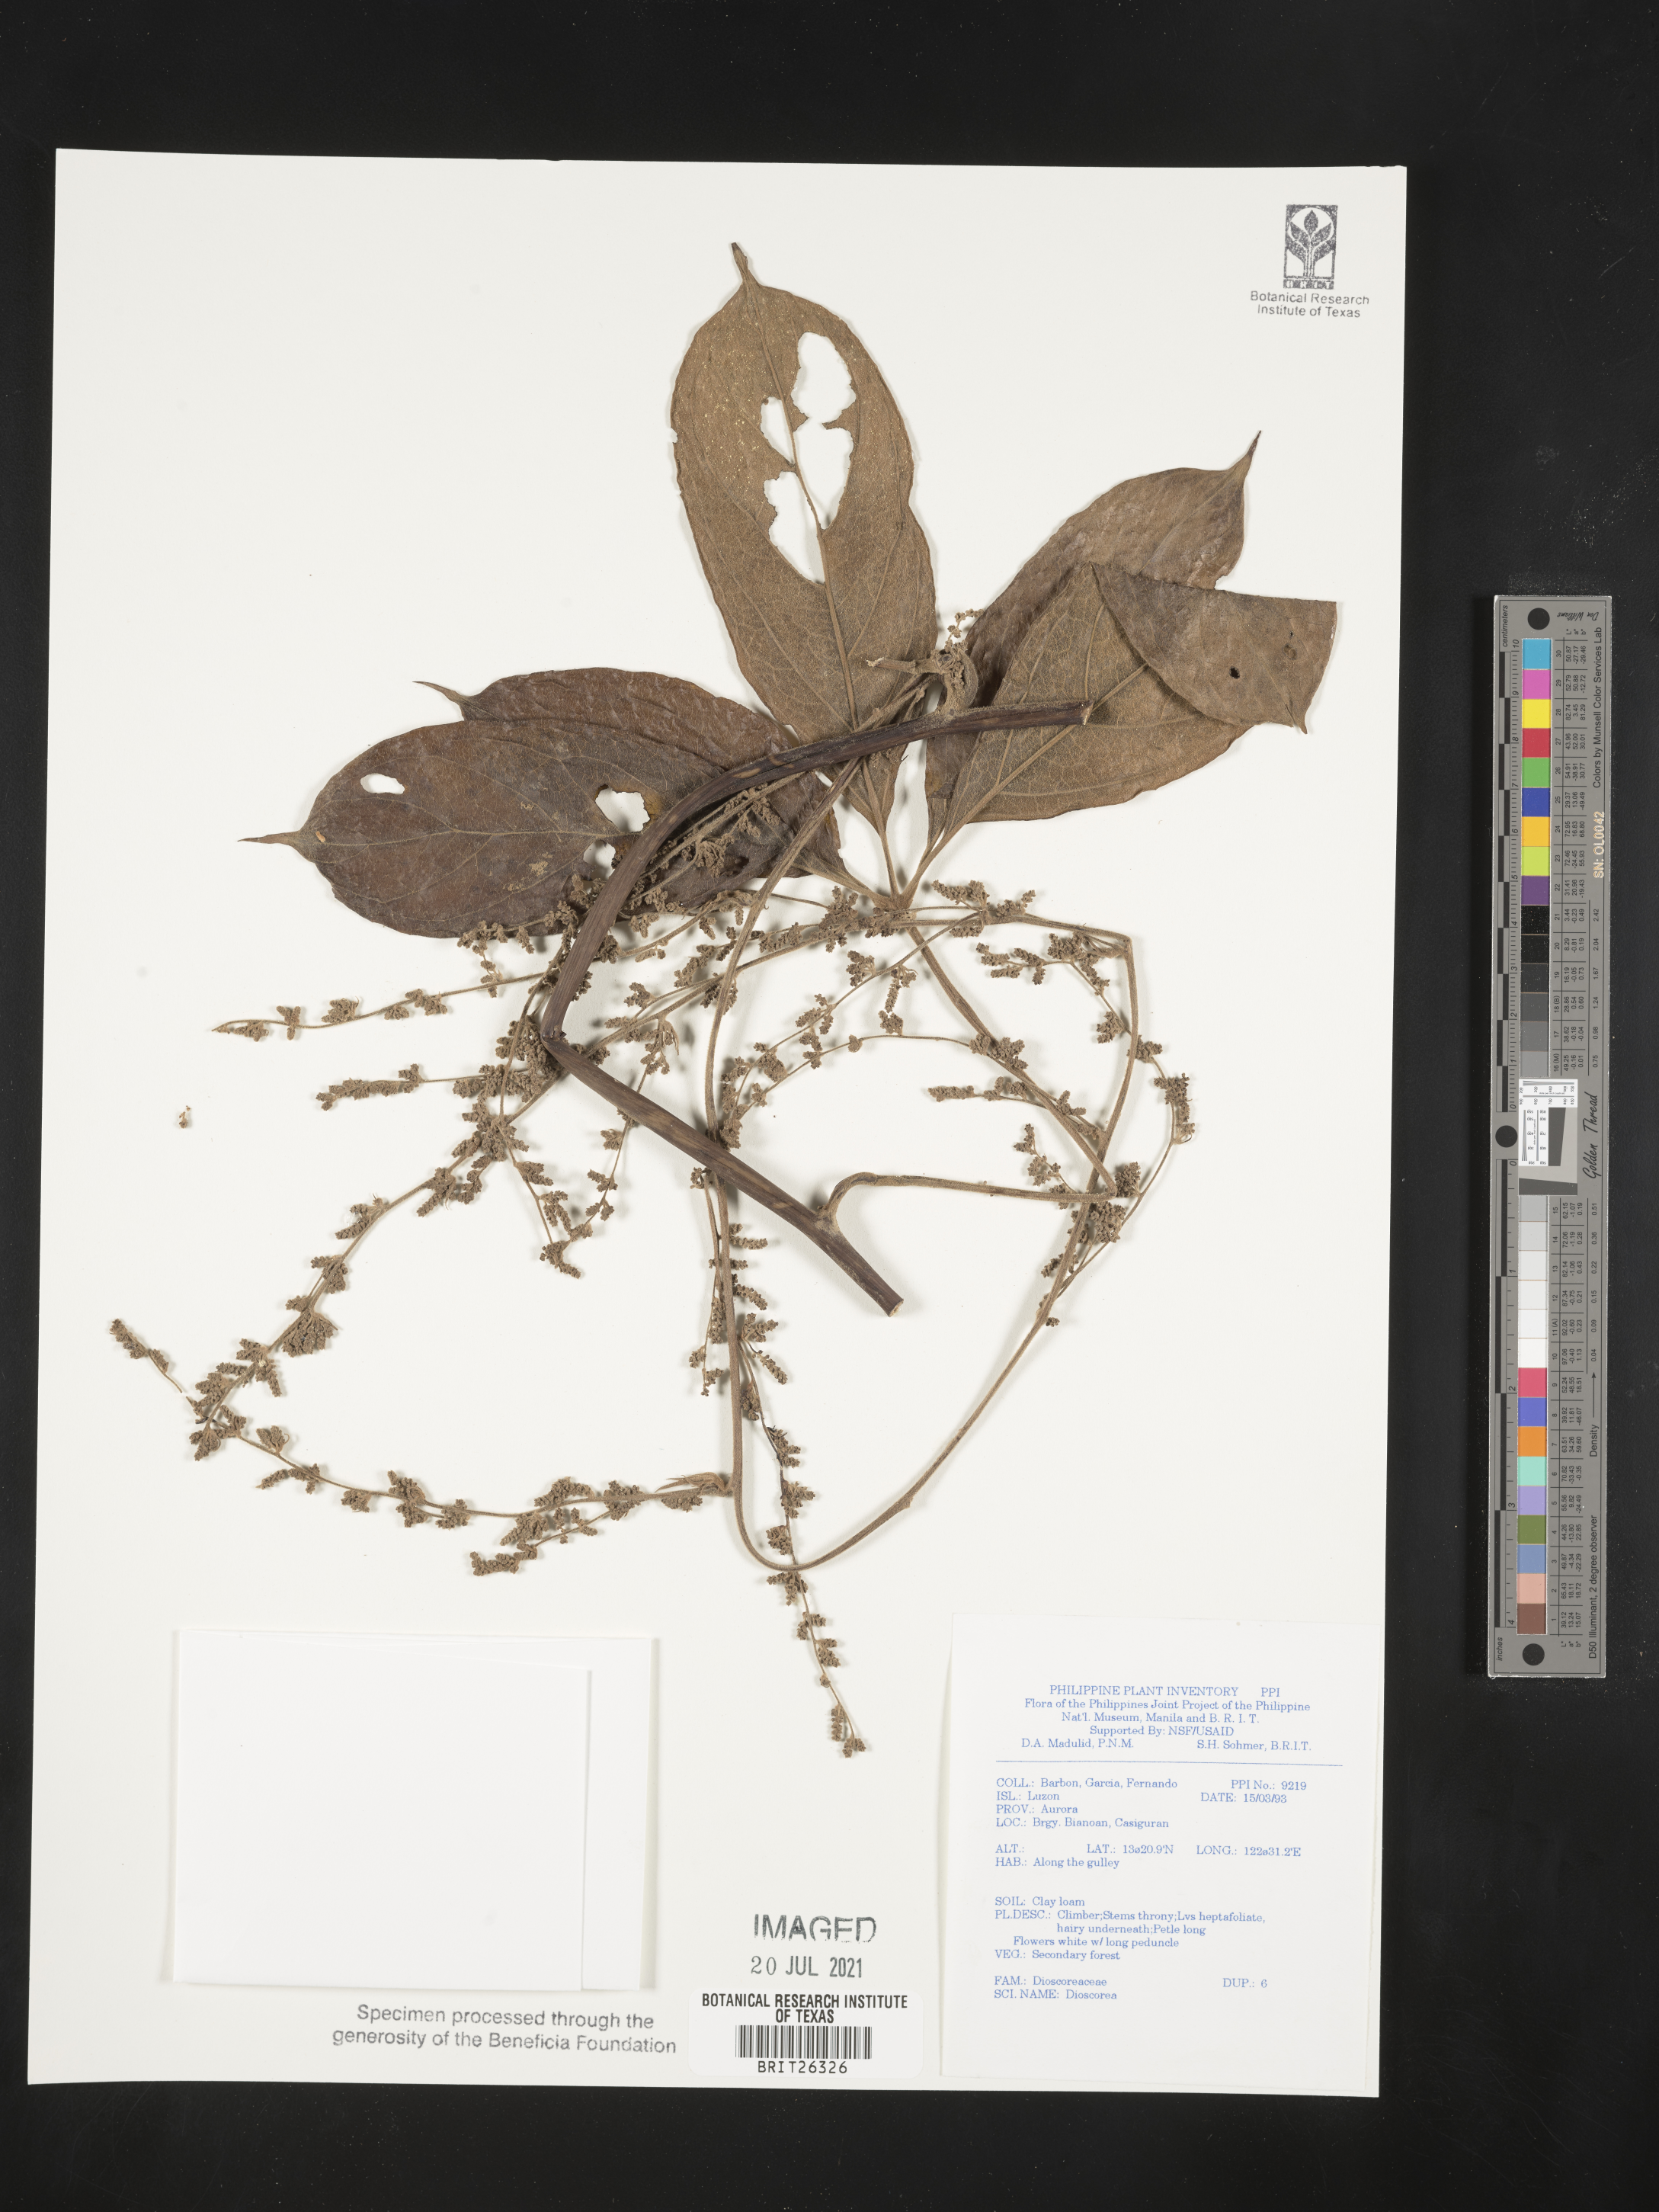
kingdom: Plantae
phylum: Tracheophyta
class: Liliopsida
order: Dioscoreales
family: Dioscoreaceae
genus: Dioscorea
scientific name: Dioscorea
